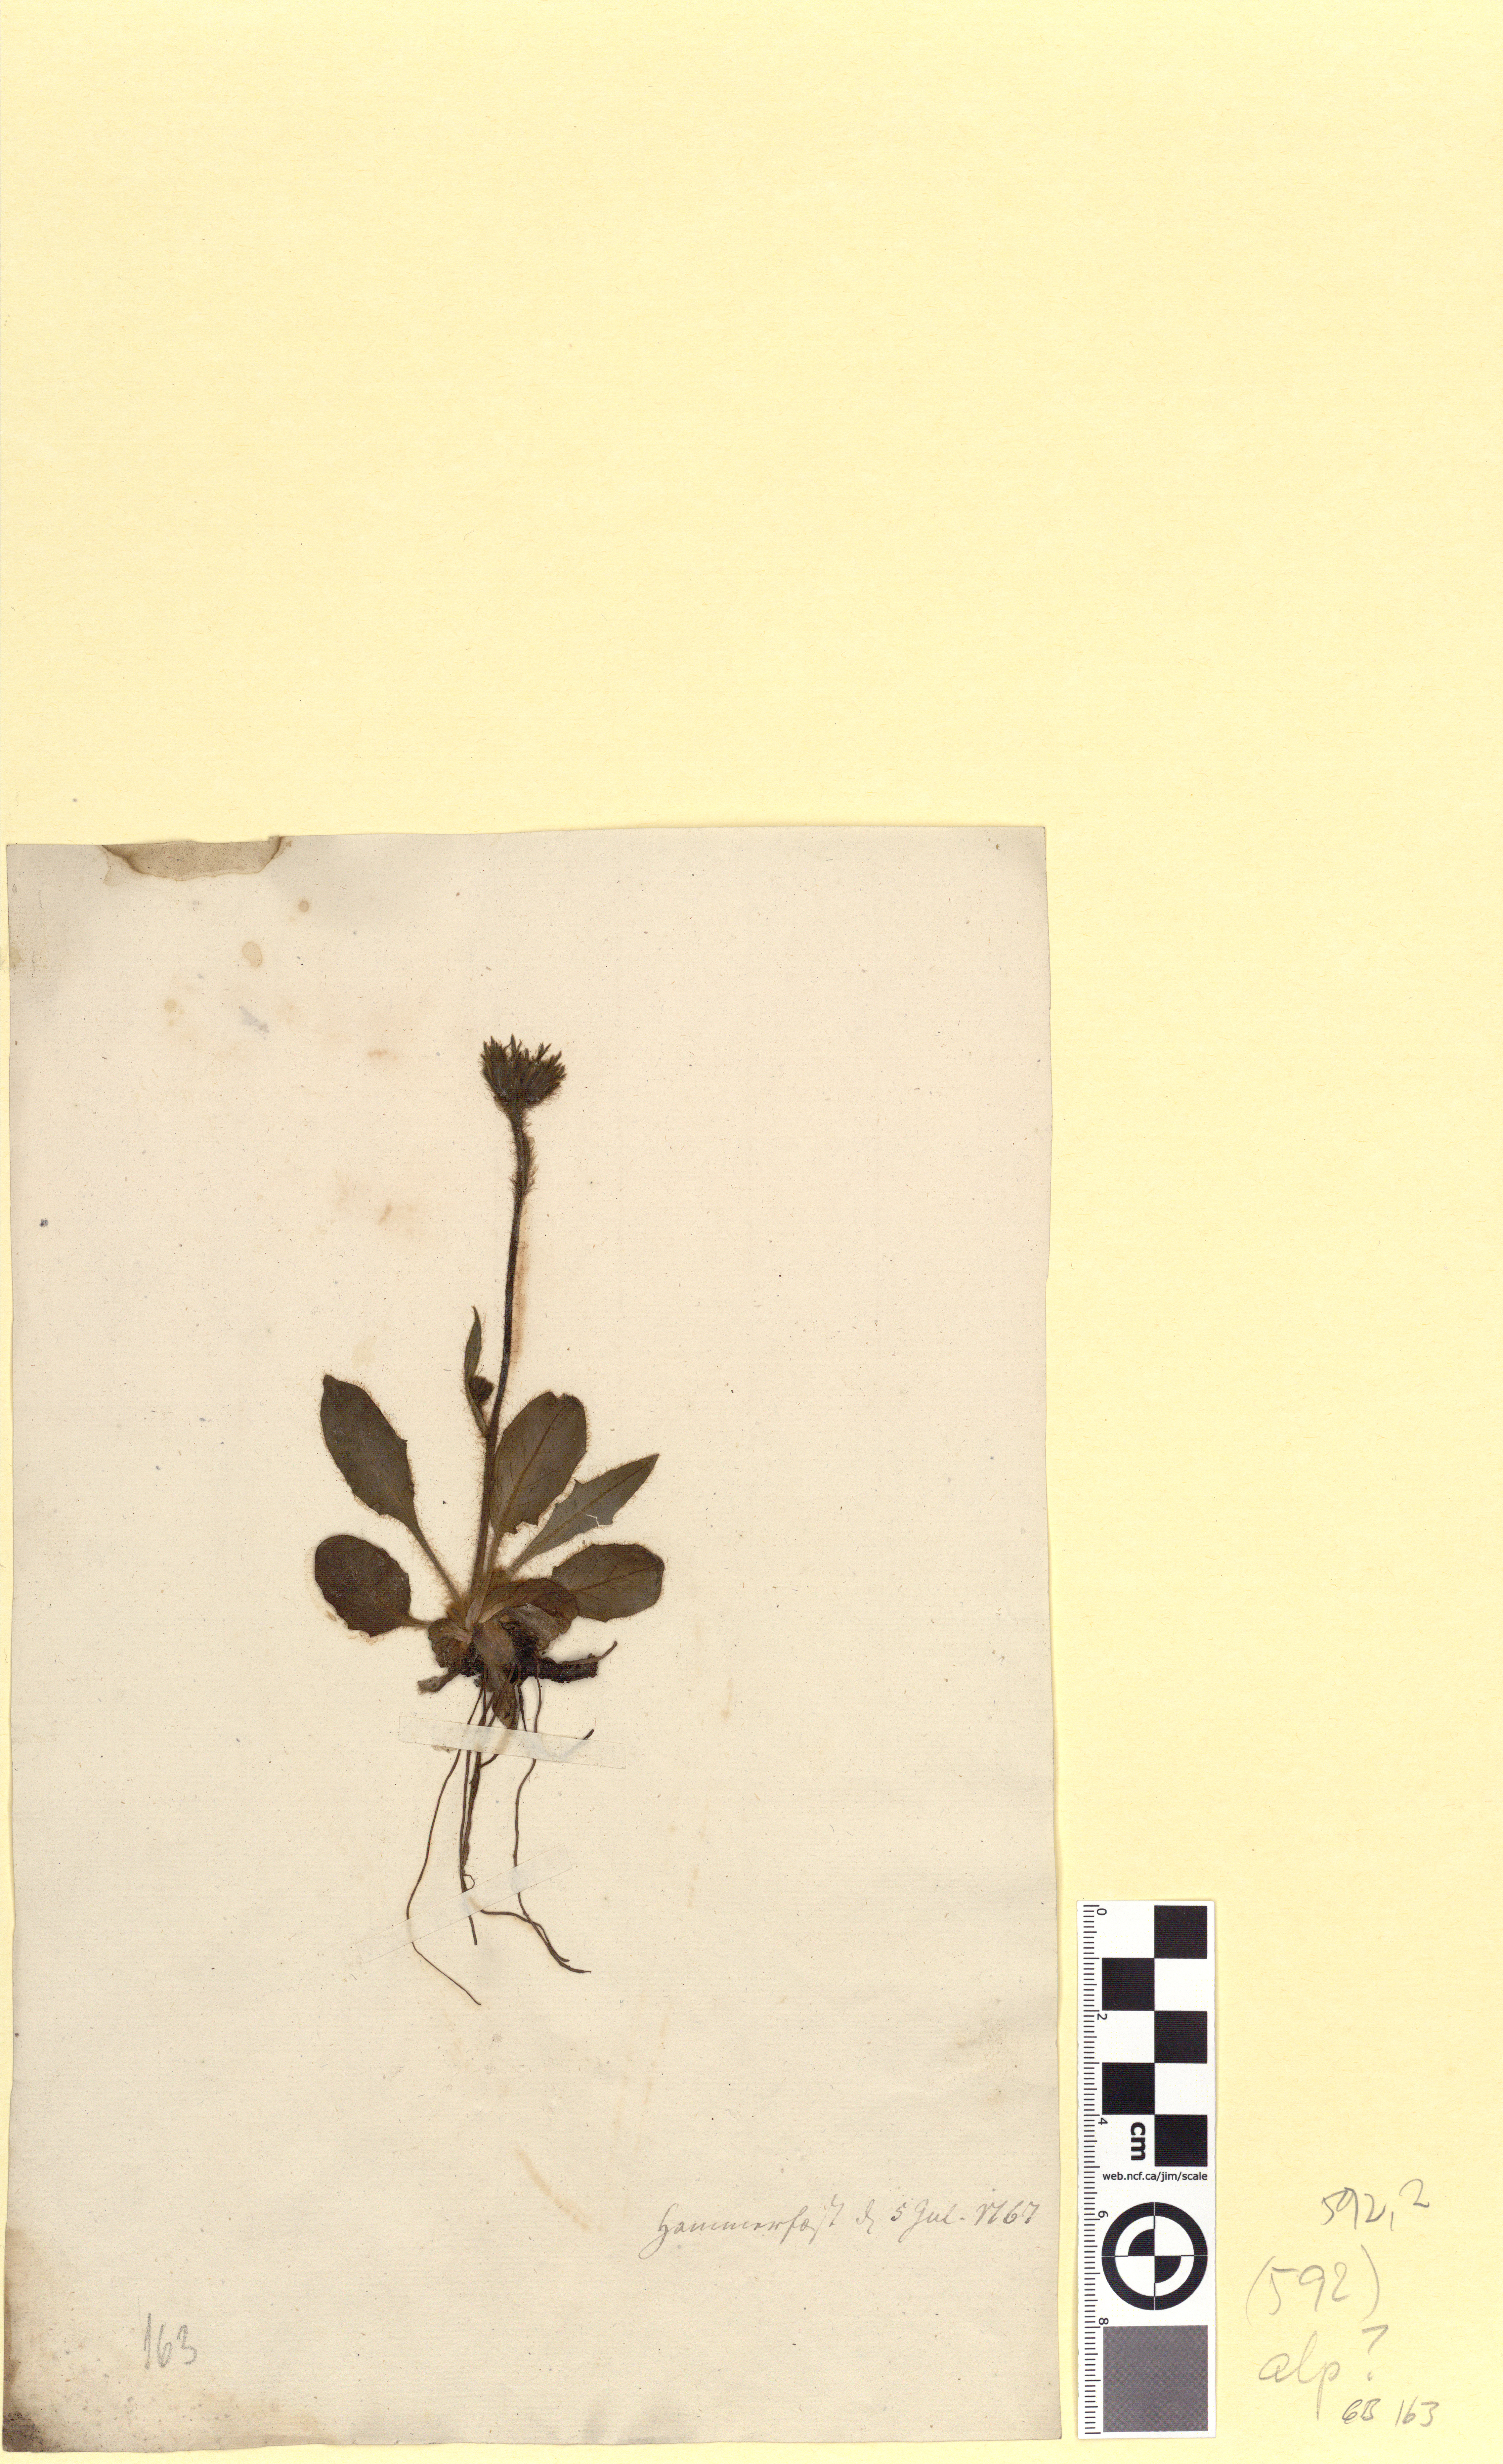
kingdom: Plantae
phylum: Tracheophyta
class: Magnoliopsida
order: Asterales
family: Asteraceae
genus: Hieracium
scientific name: Hieracium alpinum
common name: Alpine hawkweed
